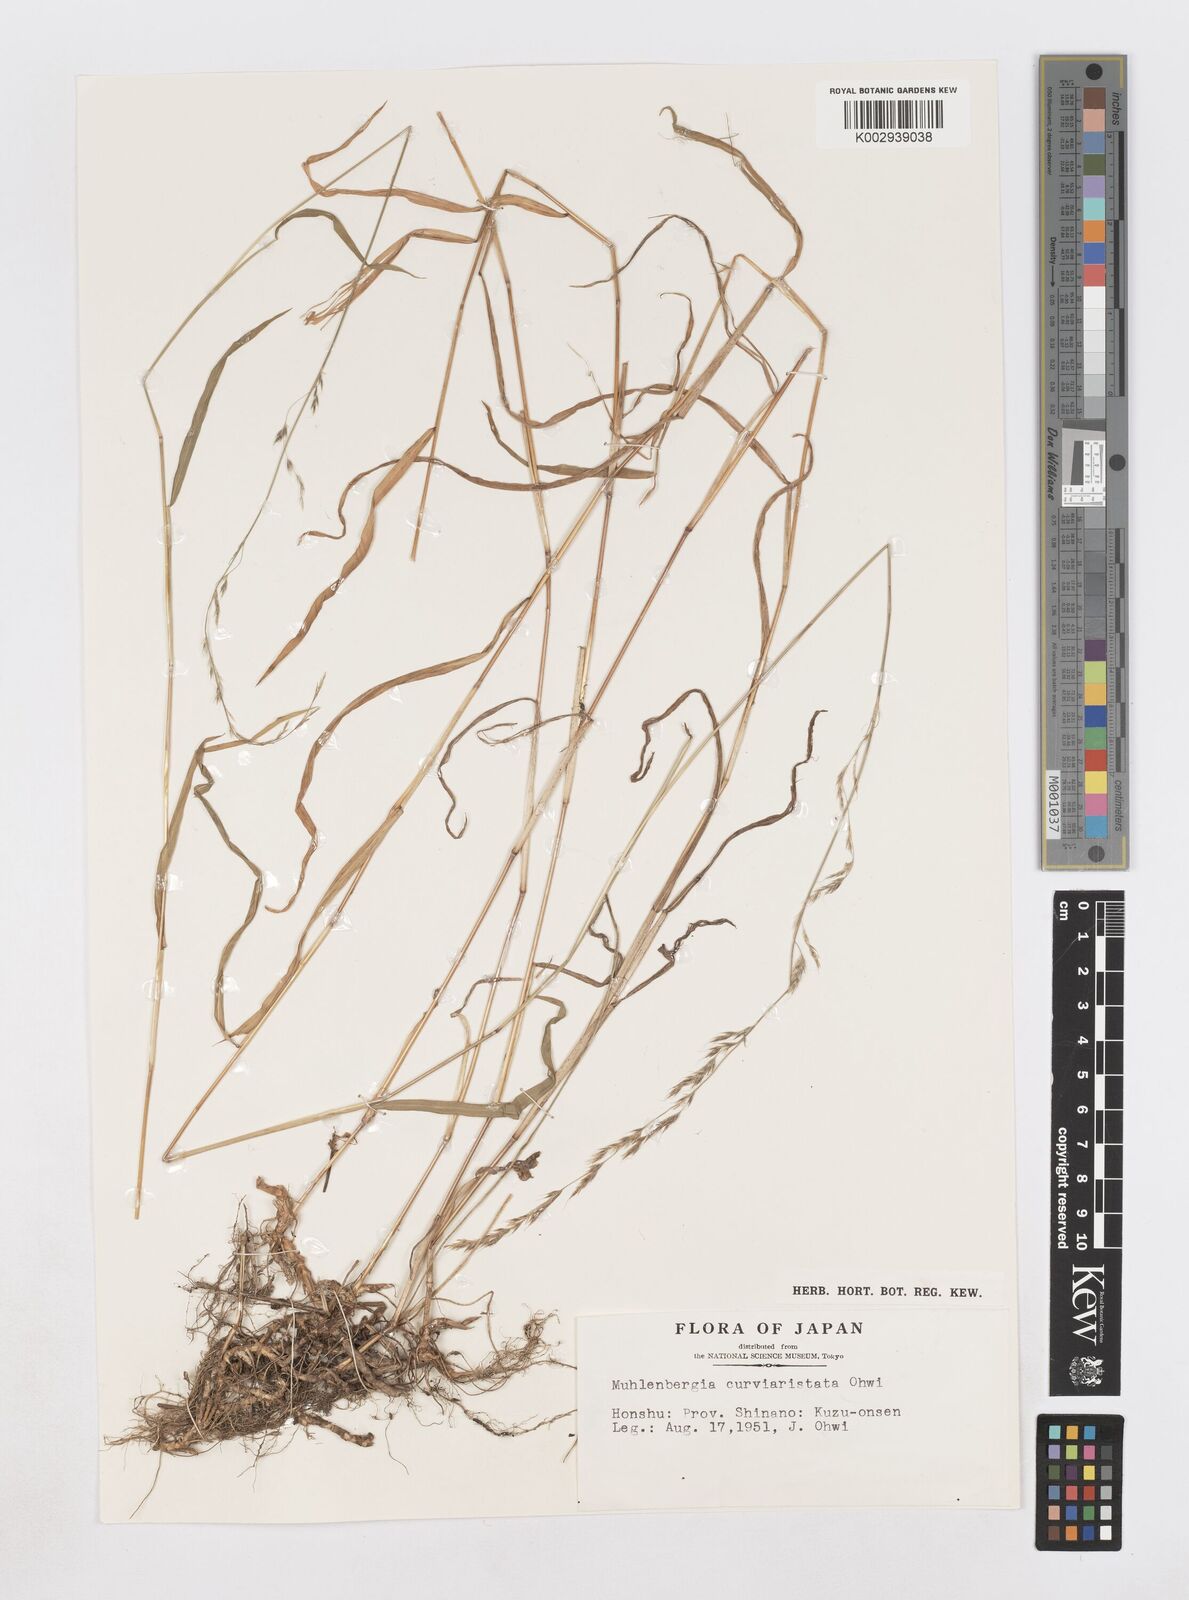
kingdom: Plantae
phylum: Tracheophyta
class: Liliopsida
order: Poales
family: Poaceae
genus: Muhlenbergia
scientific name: Muhlenbergia curviaristata
